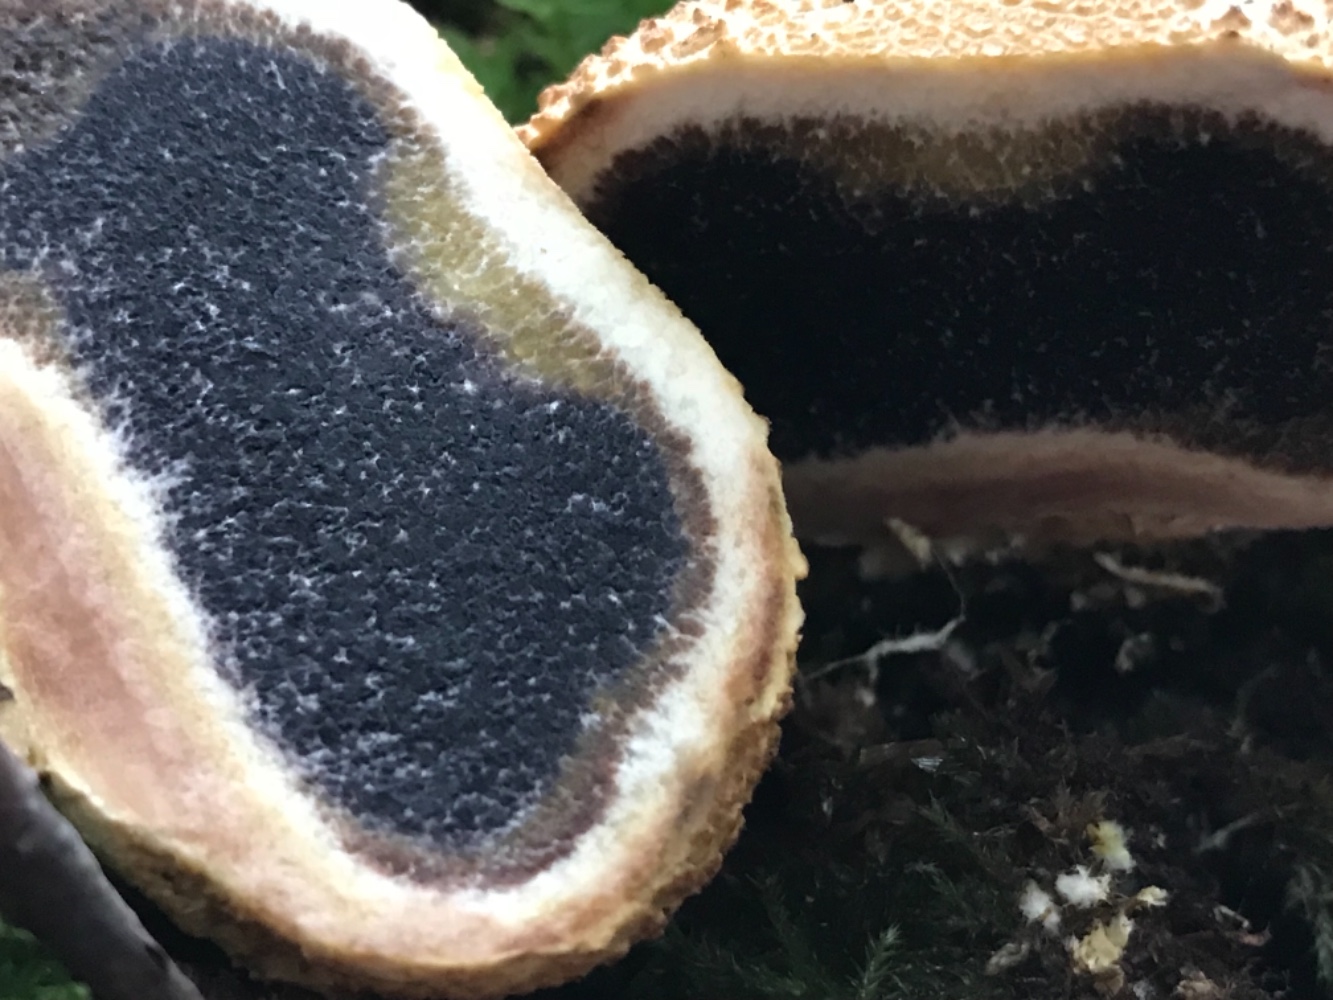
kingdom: Fungi
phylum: Basidiomycota
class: Agaricomycetes
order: Boletales
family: Sclerodermataceae
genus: Scleroderma
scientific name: Scleroderma citrinum
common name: almindelig bruskbold
